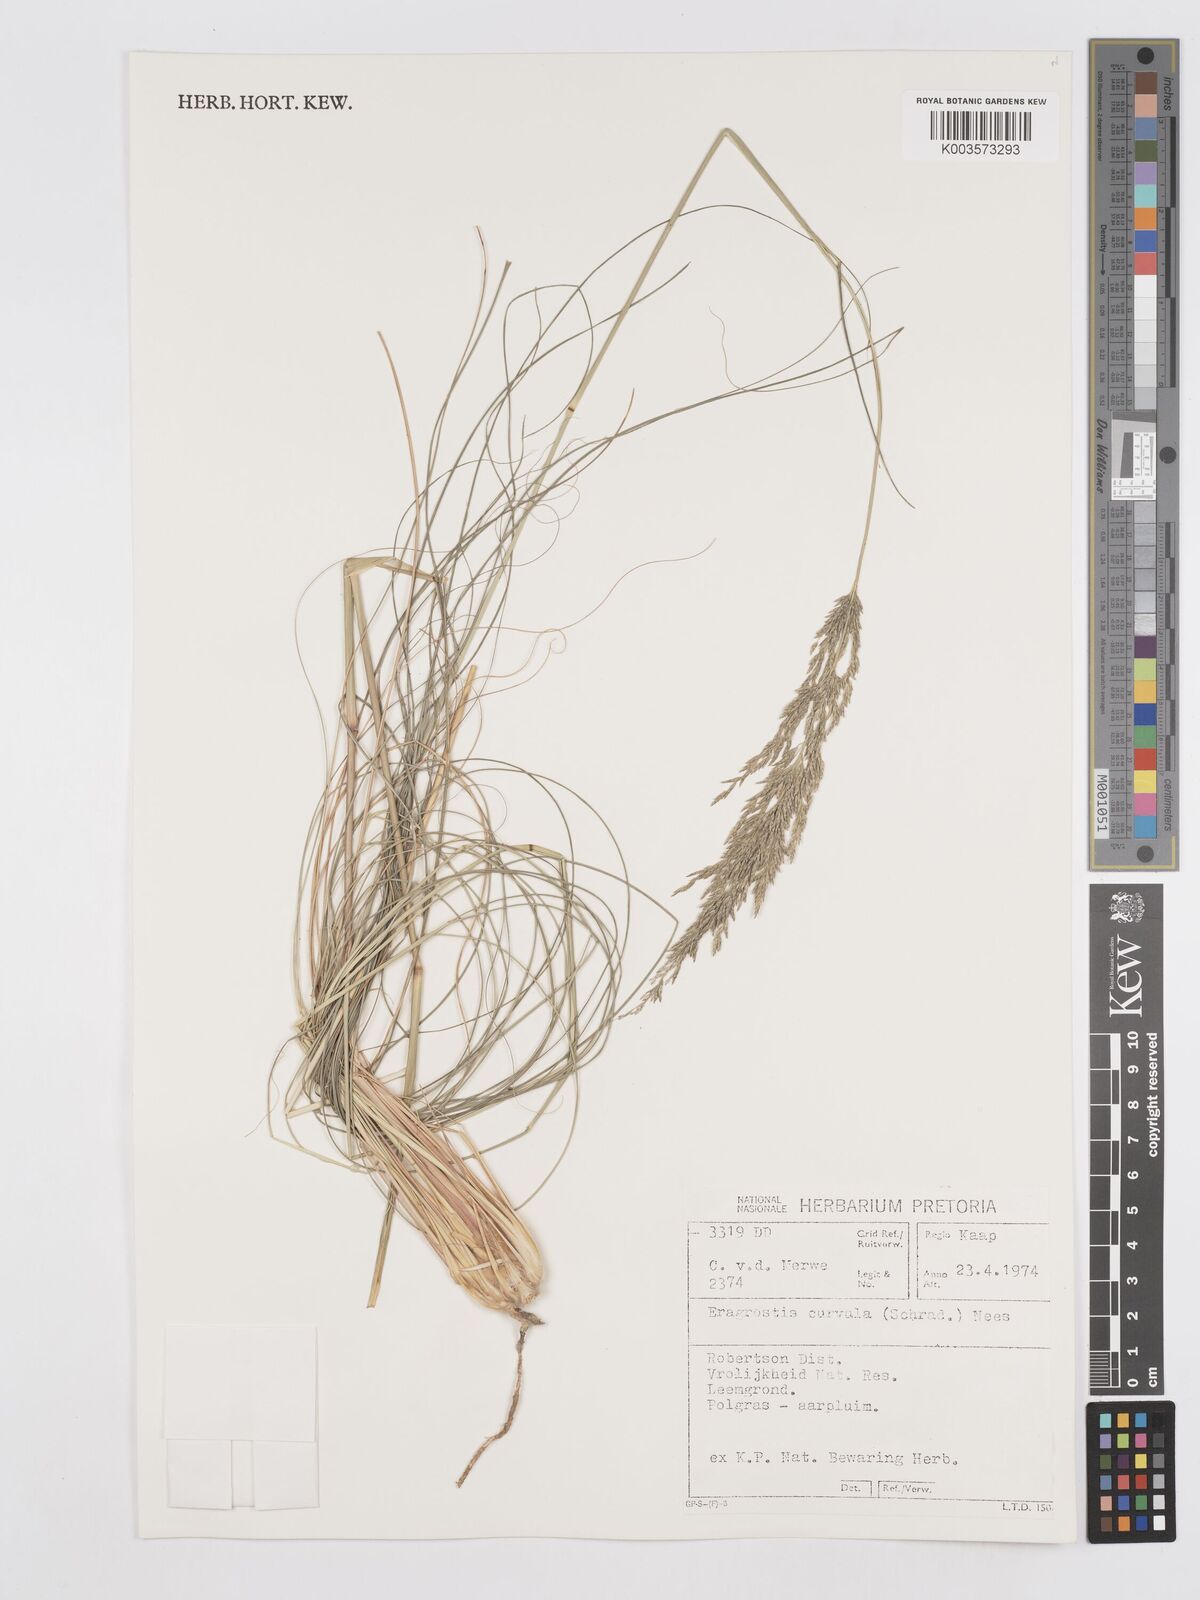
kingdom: Plantae
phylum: Tracheophyta
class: Liliopsida
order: Poales
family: Poaceae
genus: Eragrostis
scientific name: Eragrostis curvula
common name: African love-grass
